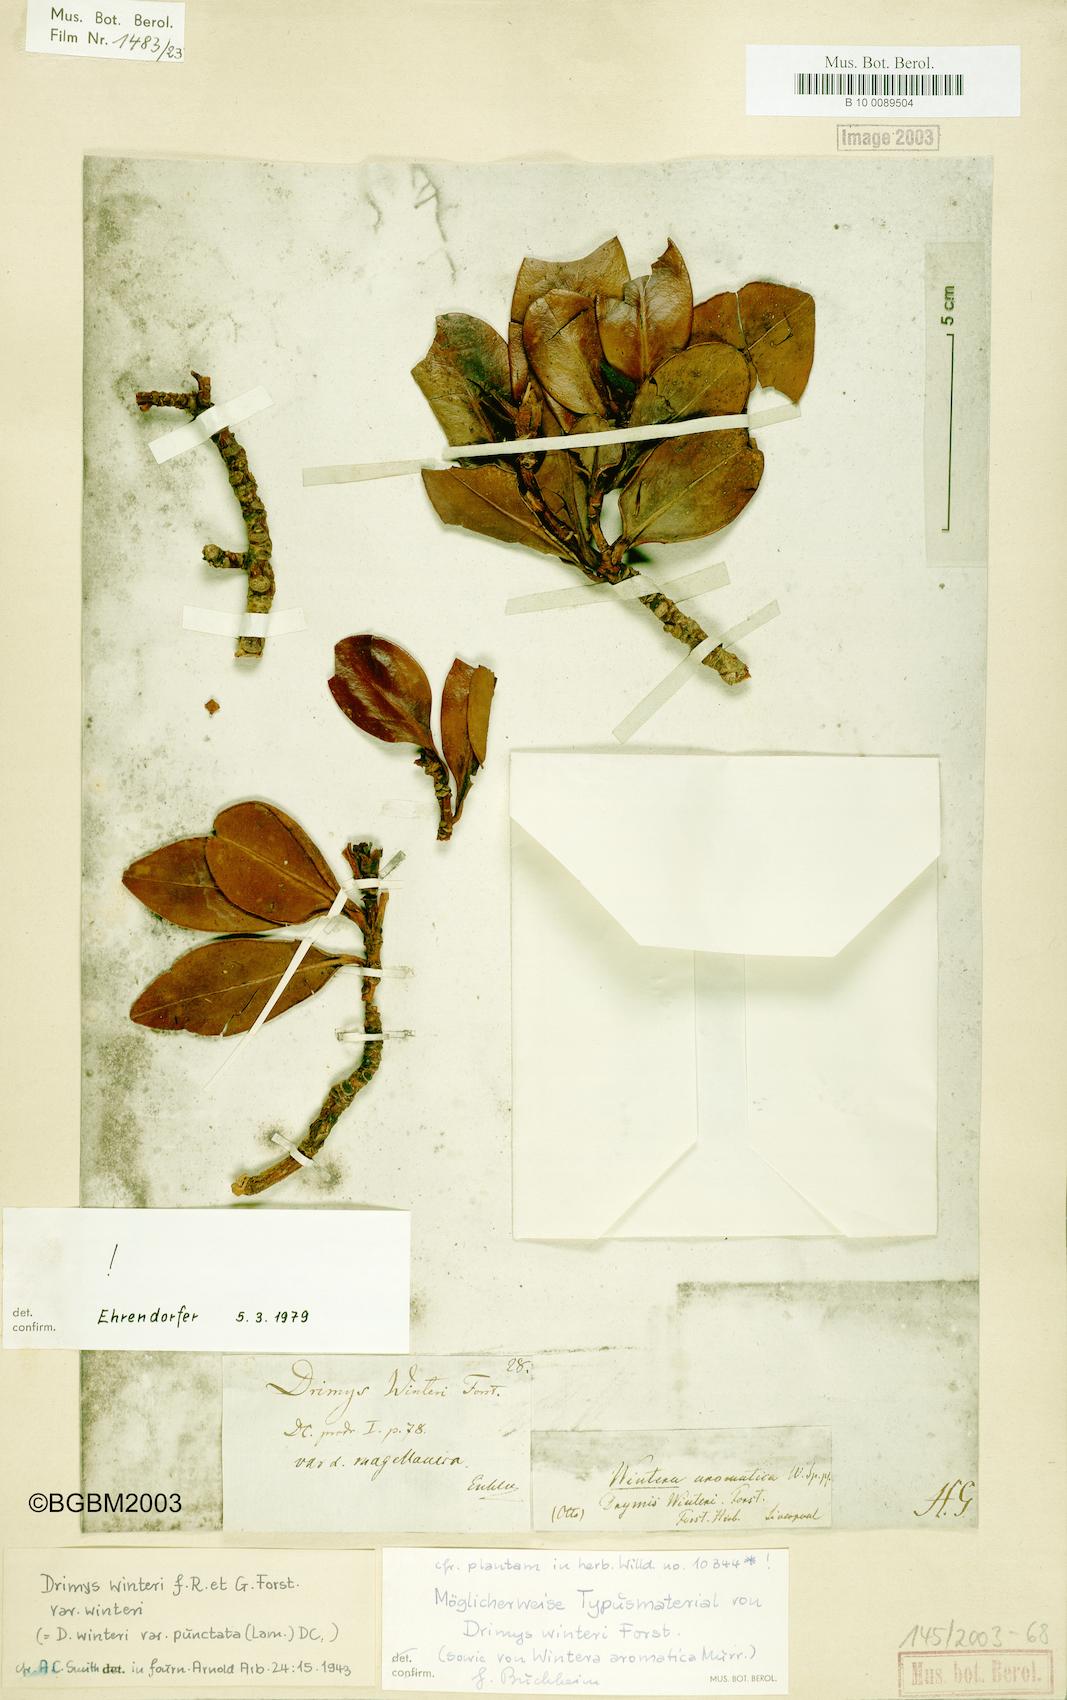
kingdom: Plantae
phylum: Tracheophyta
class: Magnoliopsida
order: Canellales
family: Winteraceae
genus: Drimys
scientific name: Drimys winteri
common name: Winter's-bark
